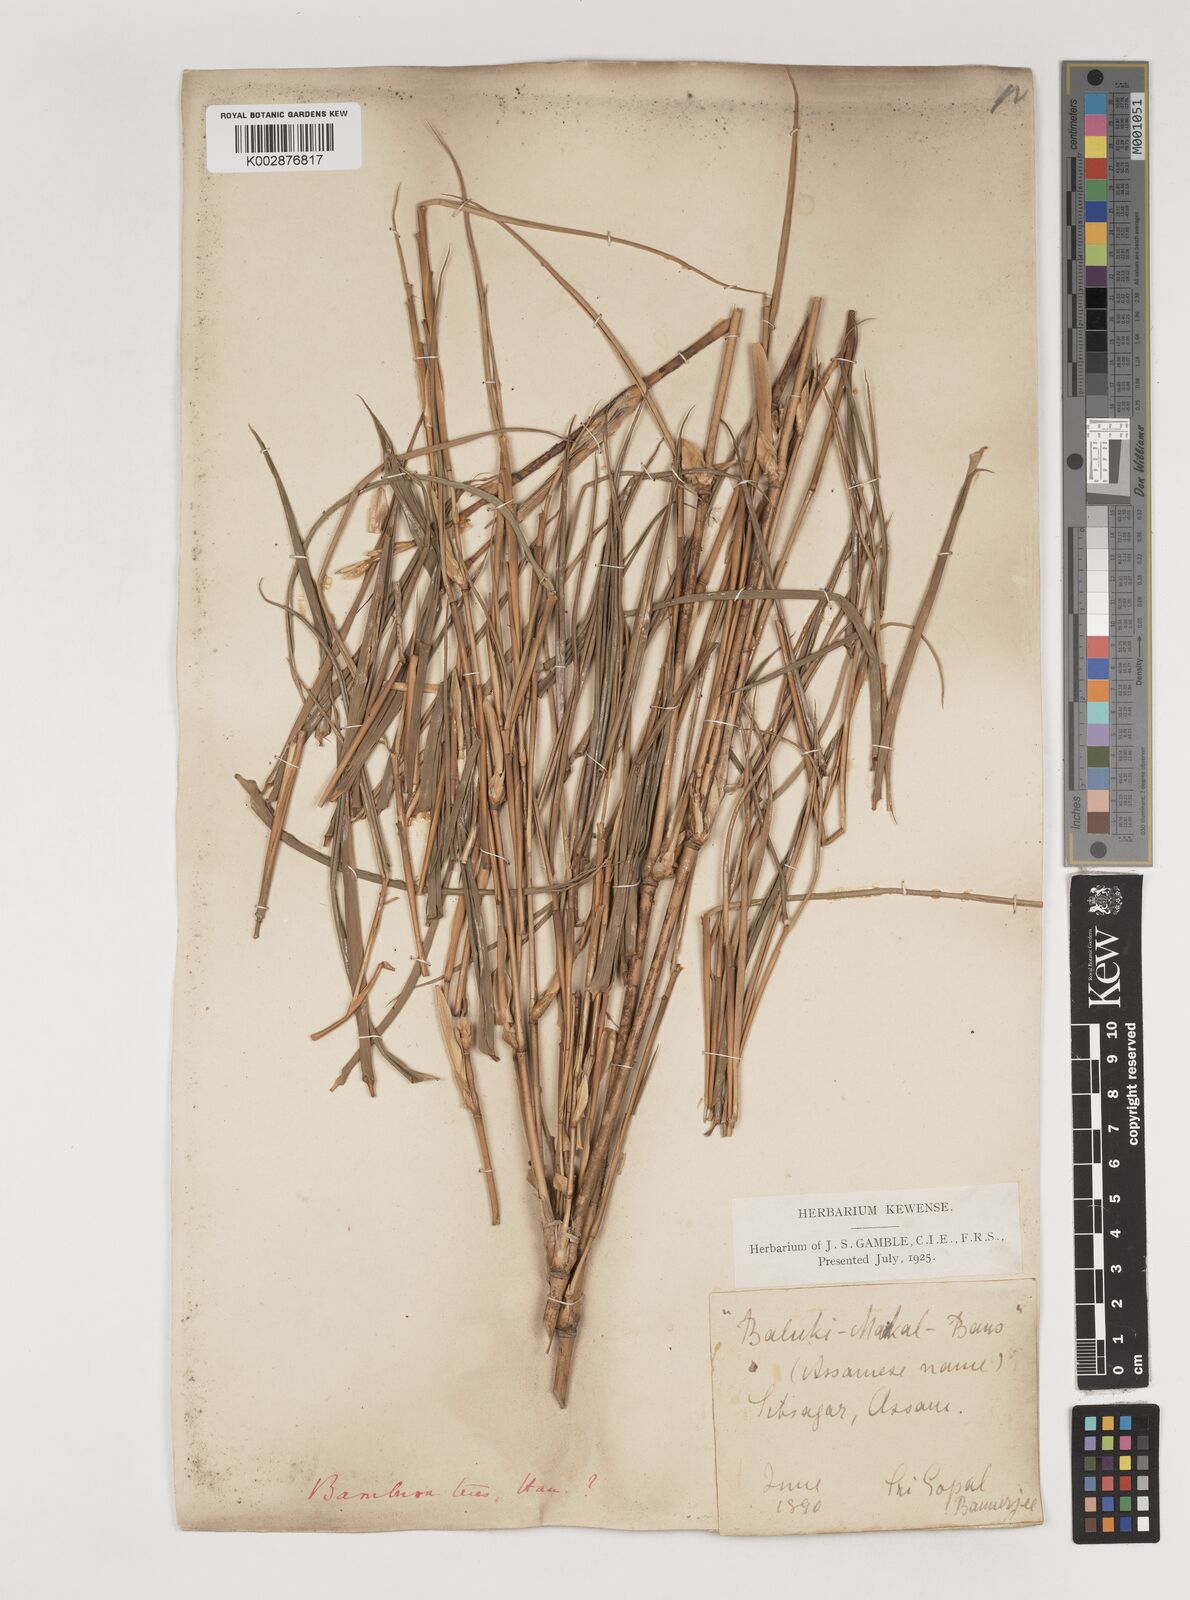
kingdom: Plantae
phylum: Tracheophyta
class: Liliopsida
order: Poales
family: Poaceae
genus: Bambusa
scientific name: Bambusa teres
